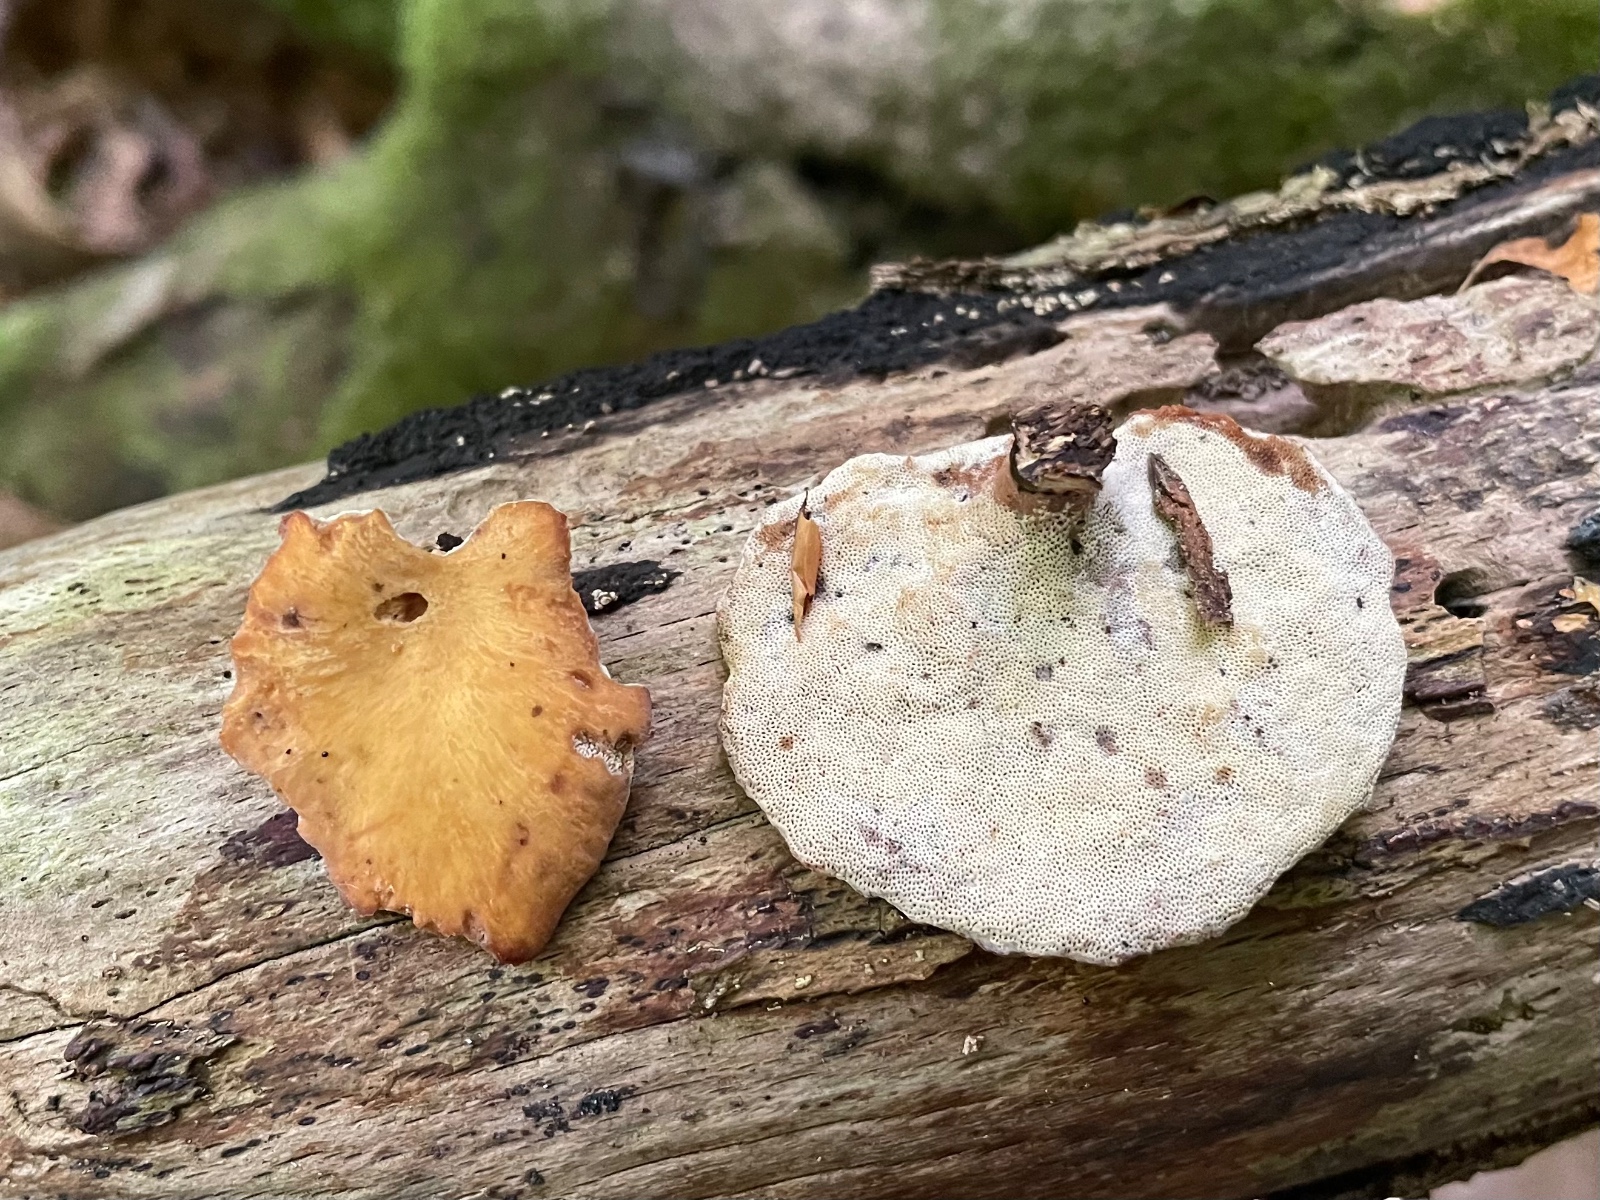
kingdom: Fungi
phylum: Basidiomycota
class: Agaricomycetes
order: Polyporales
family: Polyporaceae
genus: Cerioporus
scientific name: Cerioporus varius
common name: foranderlig stilkporesvamp
